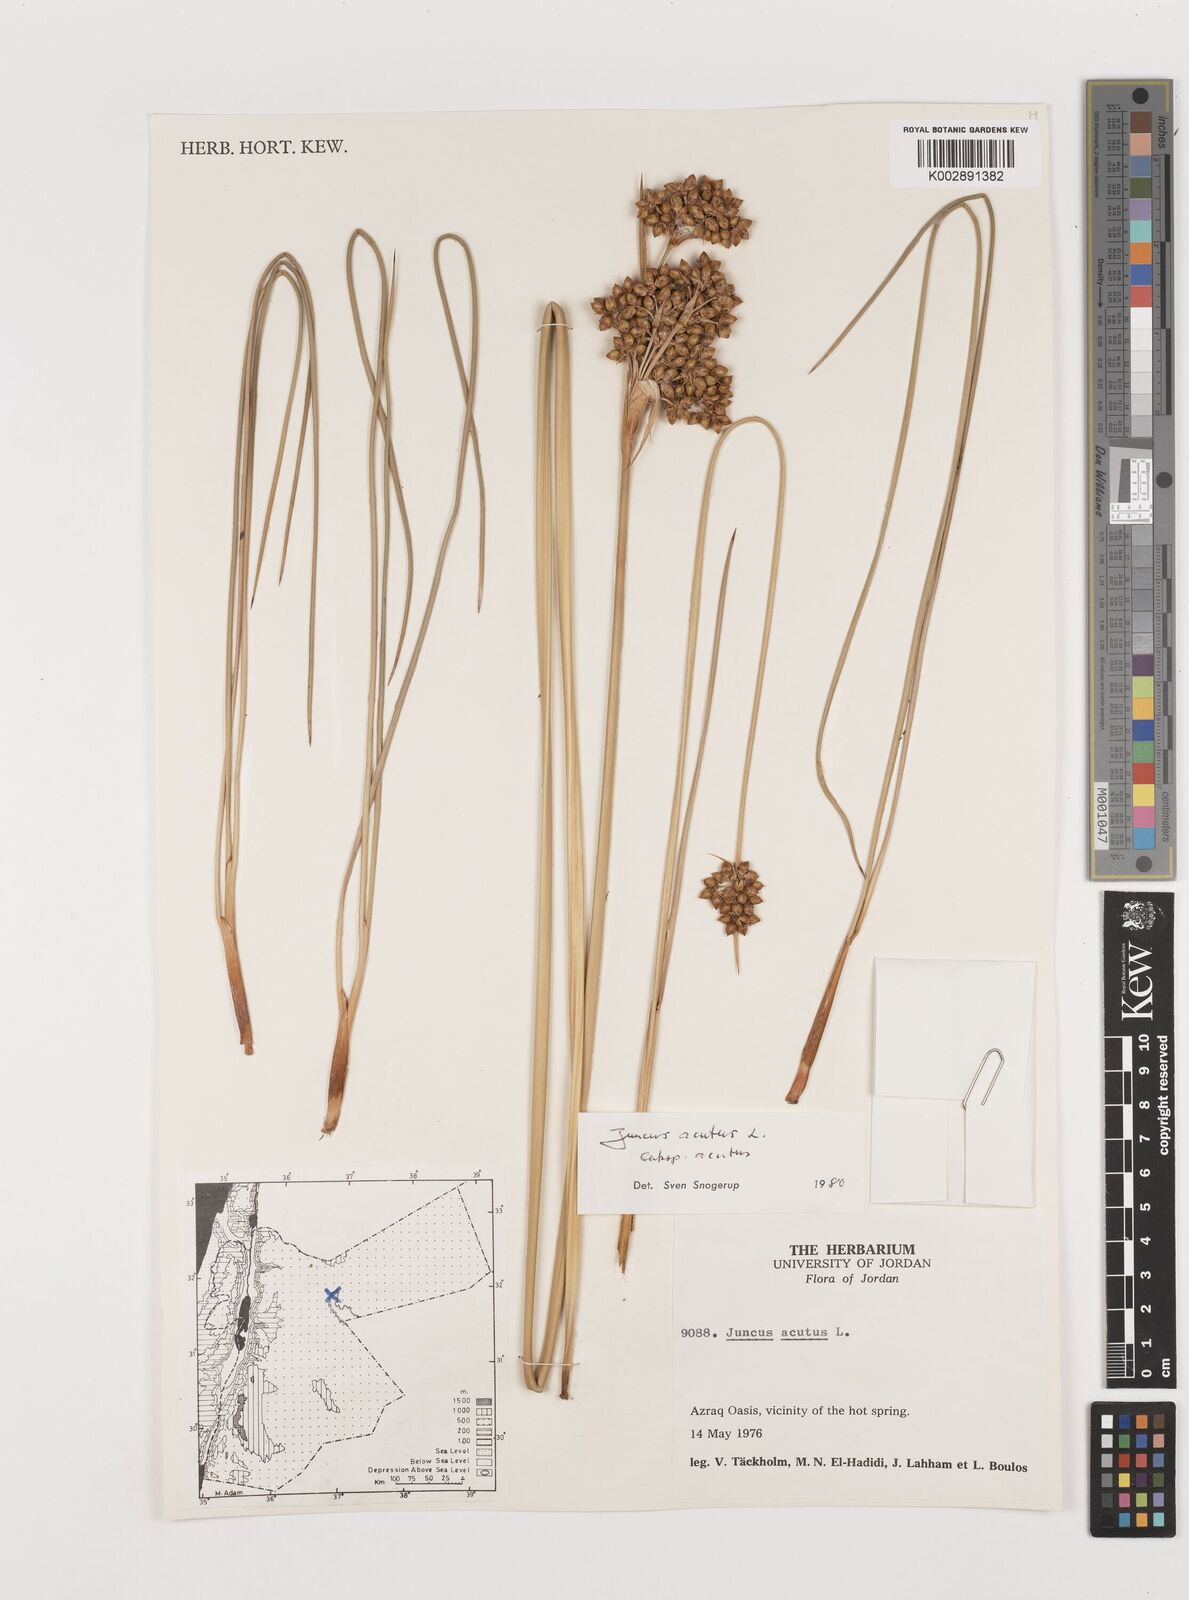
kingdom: Plantae
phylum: Tracheophyta
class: Liliopsida
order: Poales
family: Juncaceae
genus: Juncus
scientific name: Juncus acutus
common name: Sharp rush
